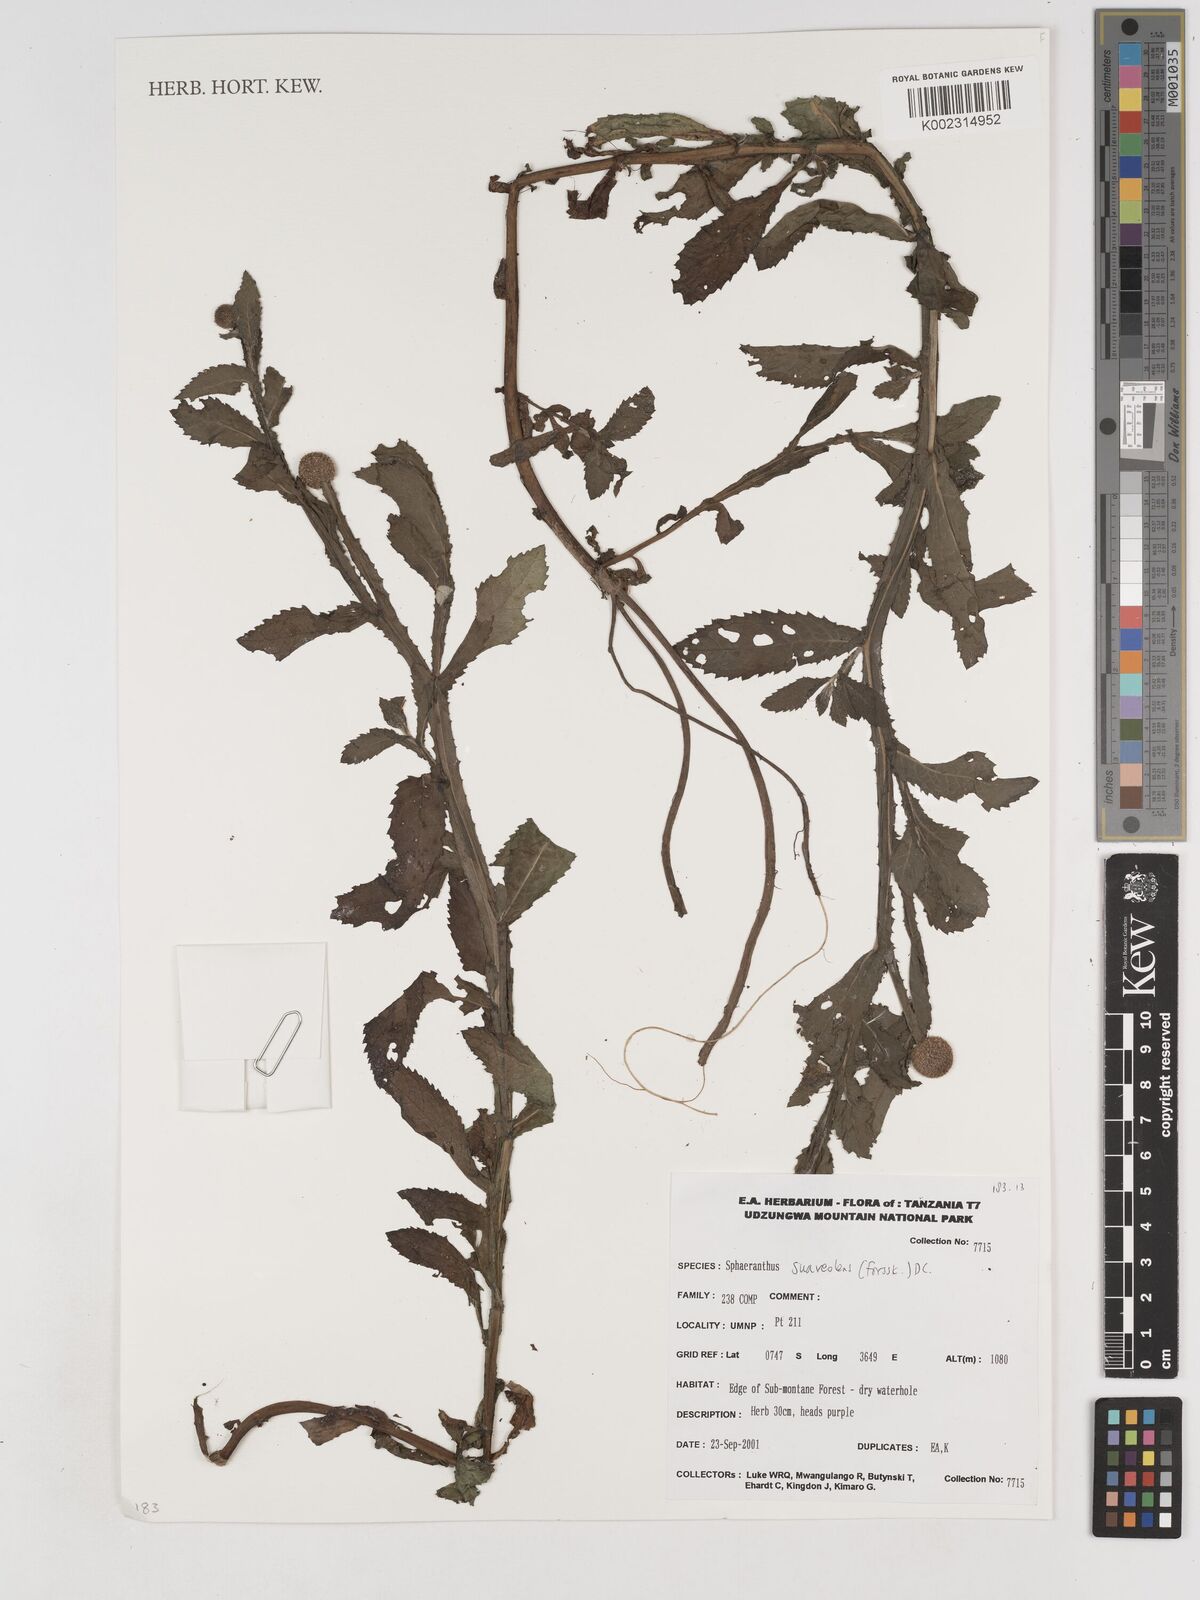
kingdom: Plantae
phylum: Tracheophyta
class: Magnoliopsida
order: Asterales
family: Asteraceae
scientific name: Asteraceae
